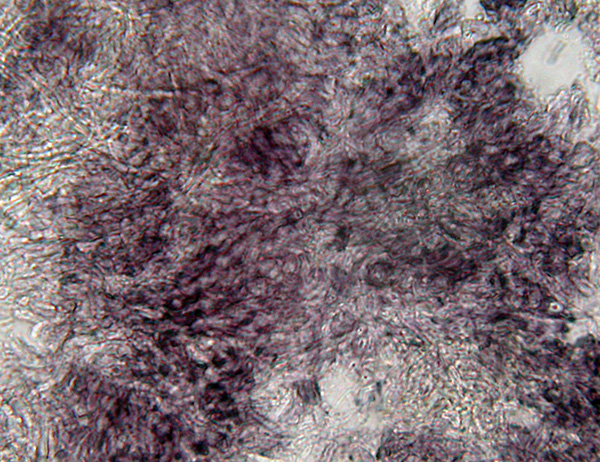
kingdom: Fungi
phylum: Ascomycota
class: Leotiomycetes
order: Helotiales
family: Lachnaceae
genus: Proliferodiscus
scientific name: Proliferodiscus pulveraceus
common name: askegrå frynseskive
